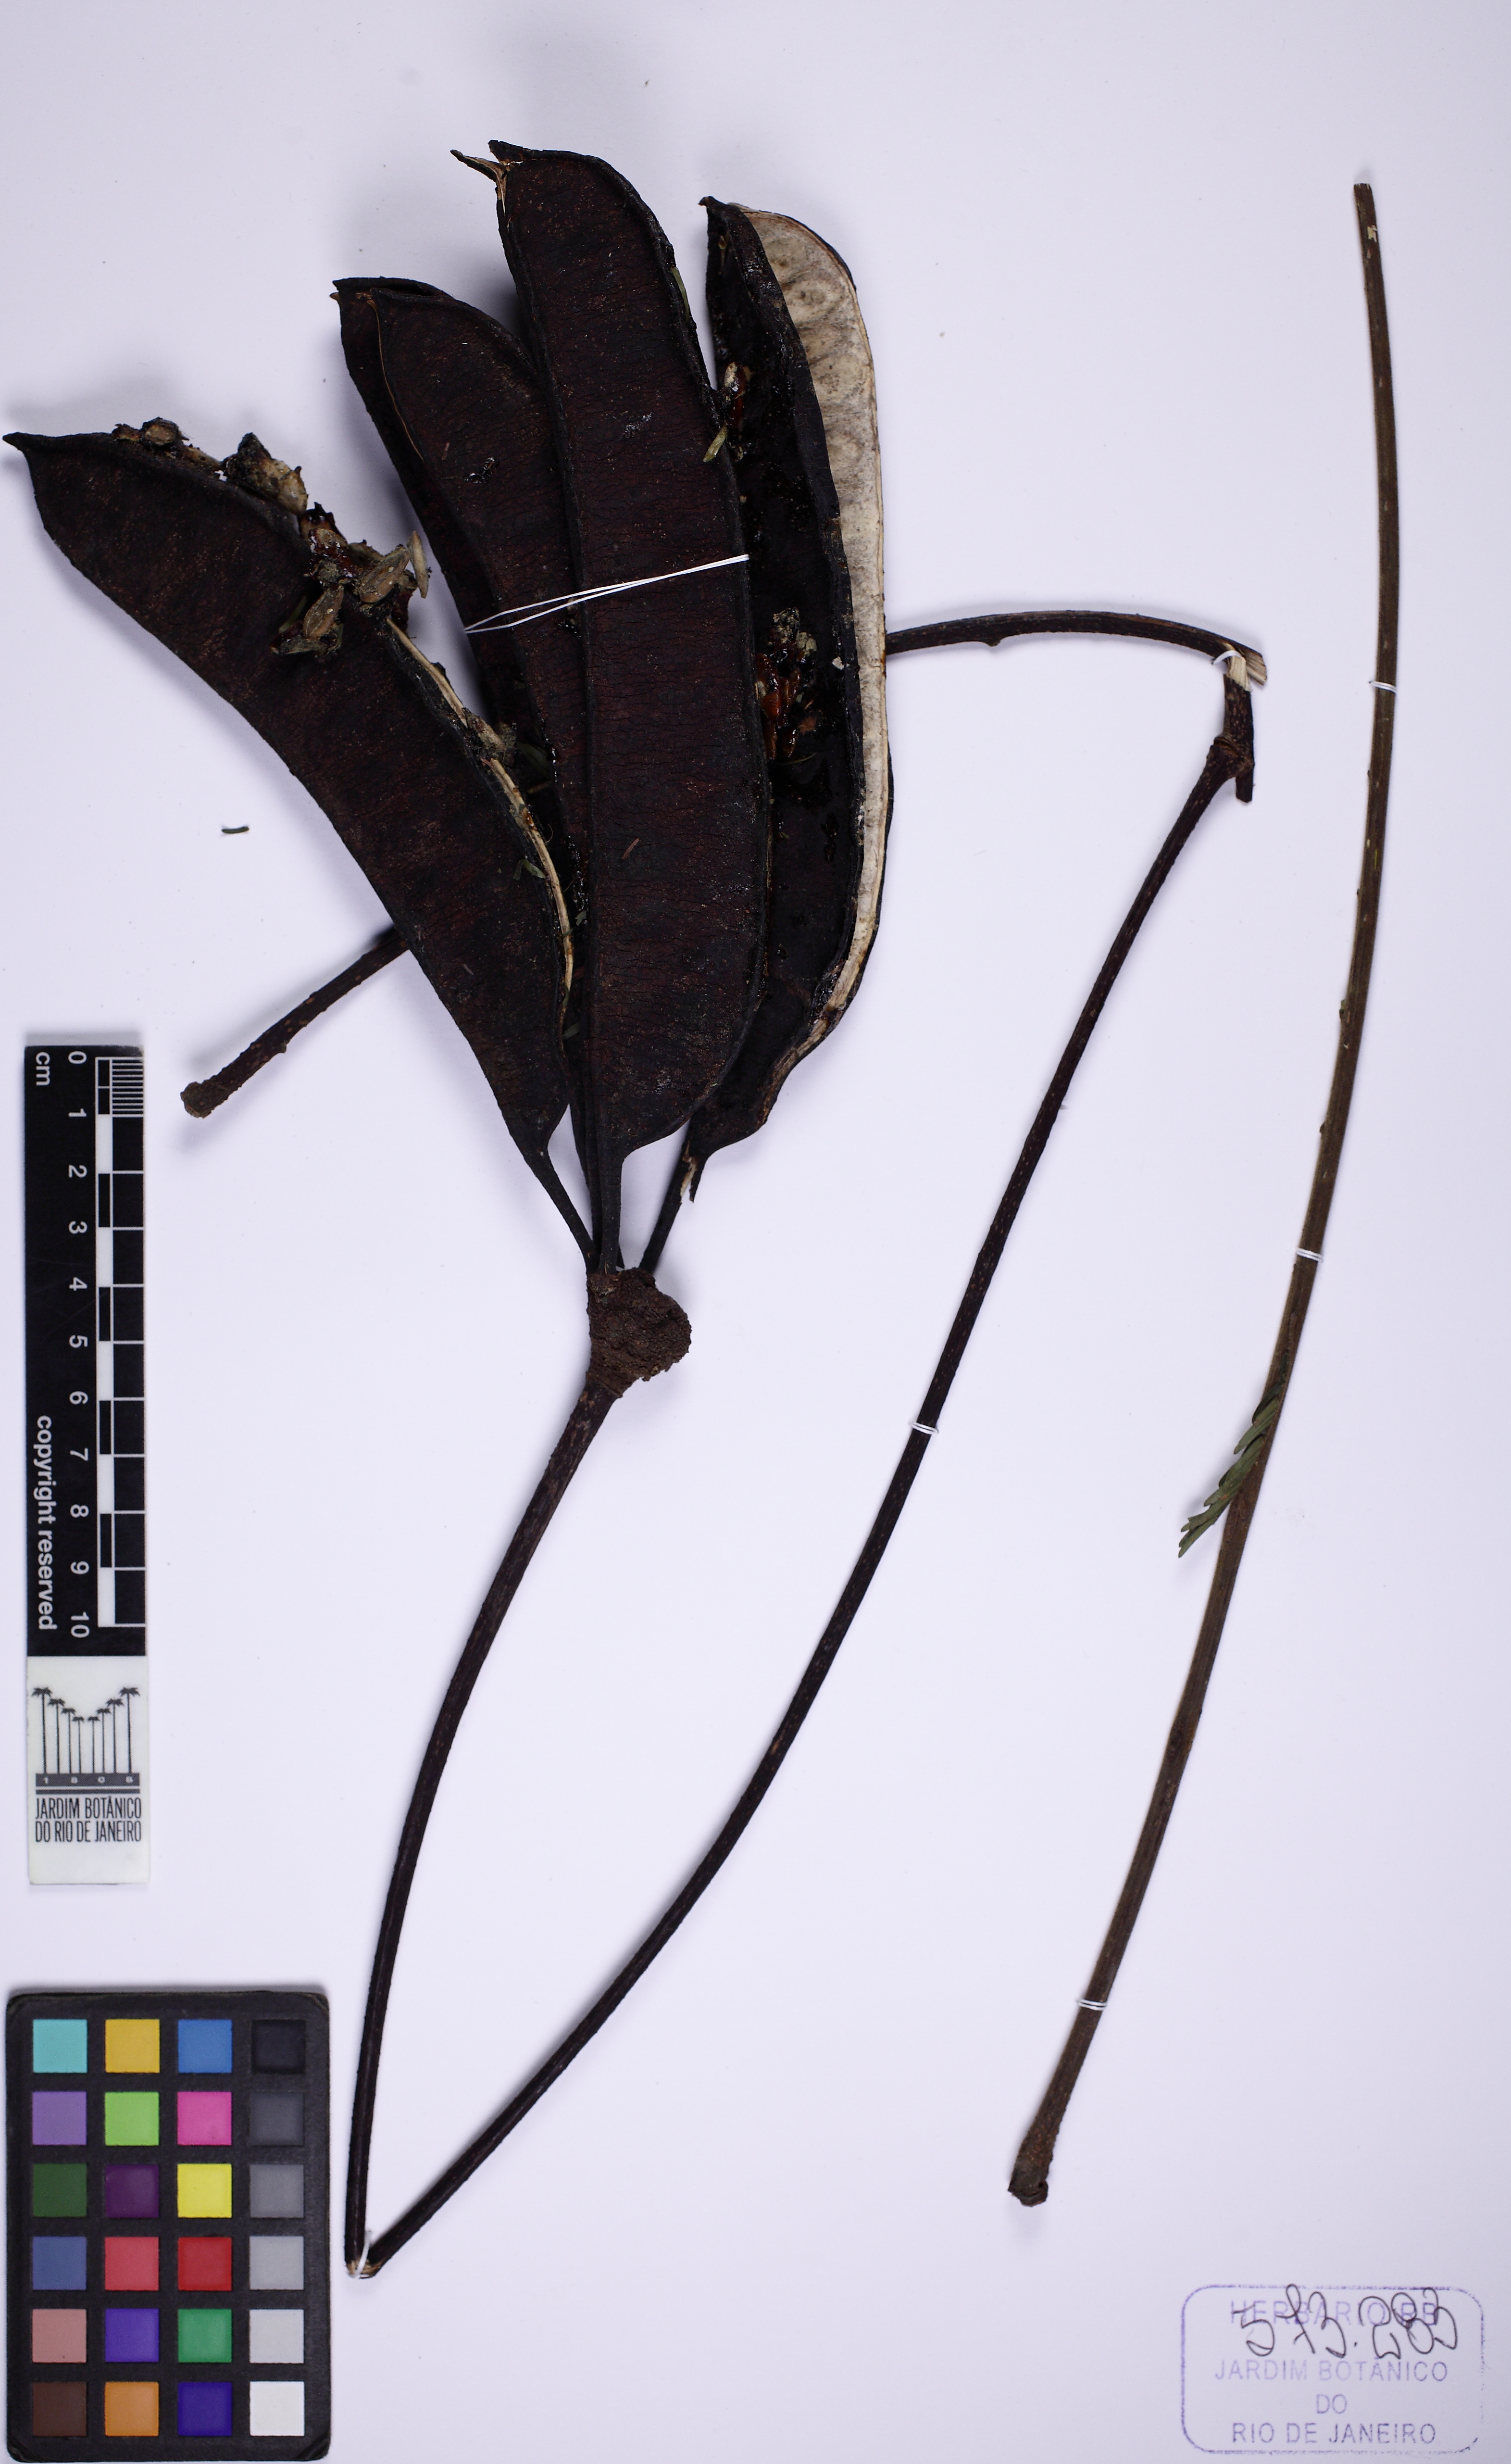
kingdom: Plantae
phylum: Tracheophyta
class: Magnoliopsida
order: Fabales
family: Fabaceae
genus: Parkia
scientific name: Parkia pendula
